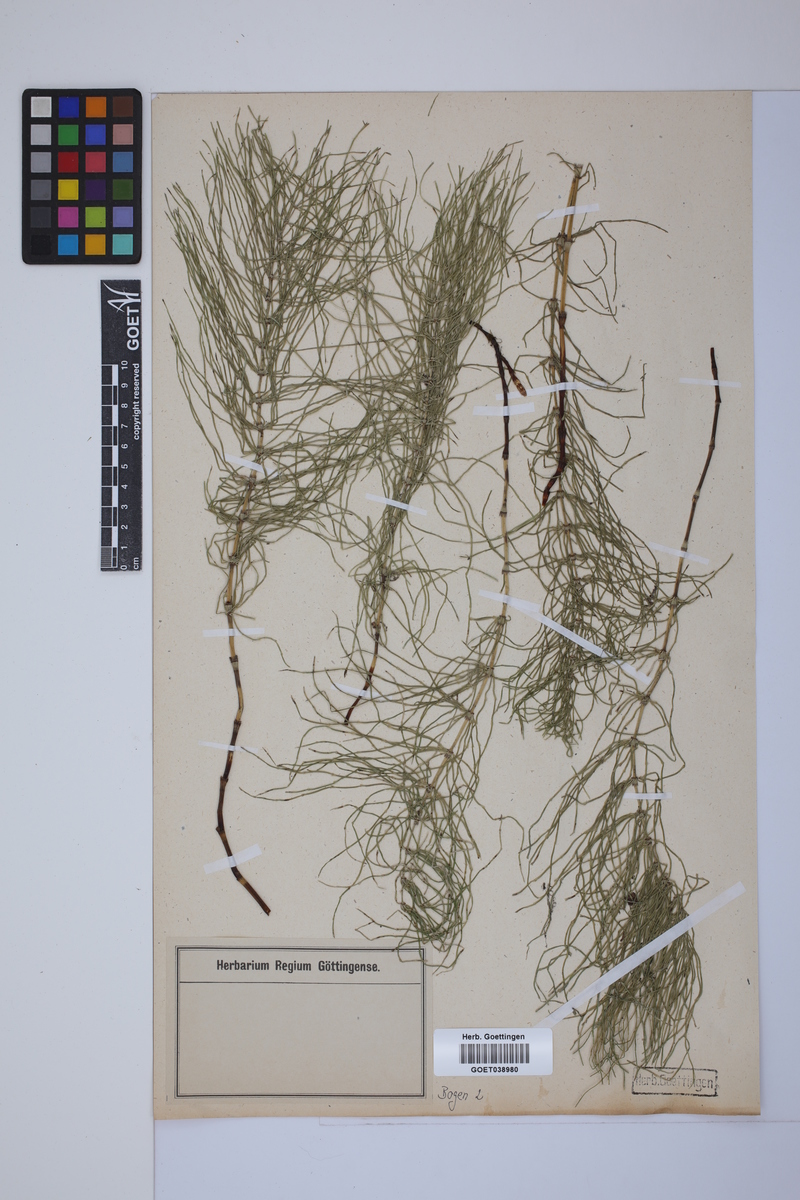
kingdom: Plantae
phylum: Tracheophyta
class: Polypodiopsida
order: Equisetales
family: Equisetaceae
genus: Equisetum
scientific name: Equisetum pratense
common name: Meadow horsetail
